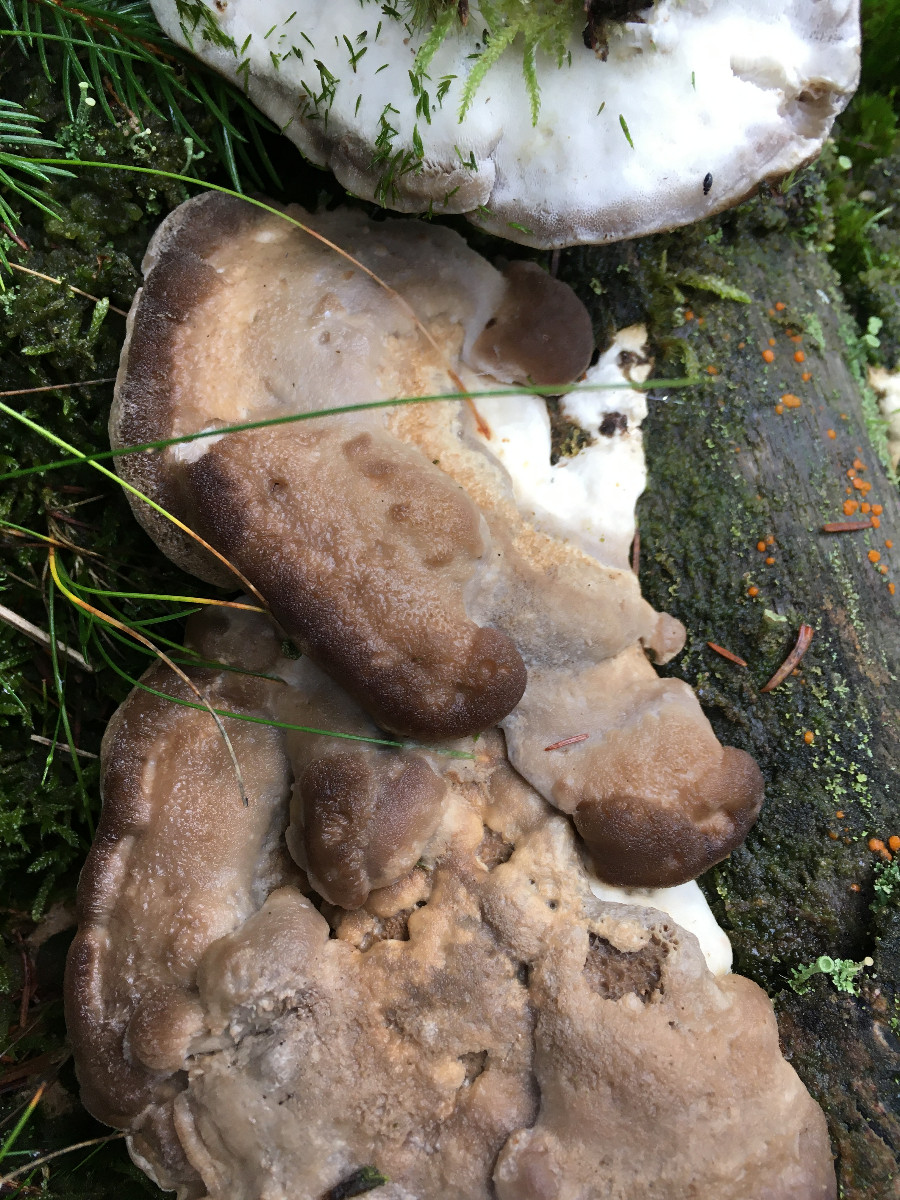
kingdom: Fungi
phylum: Basidiomycota
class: Agaricomycetes
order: Polyporales
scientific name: Polyporales
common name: poresvampordenen
